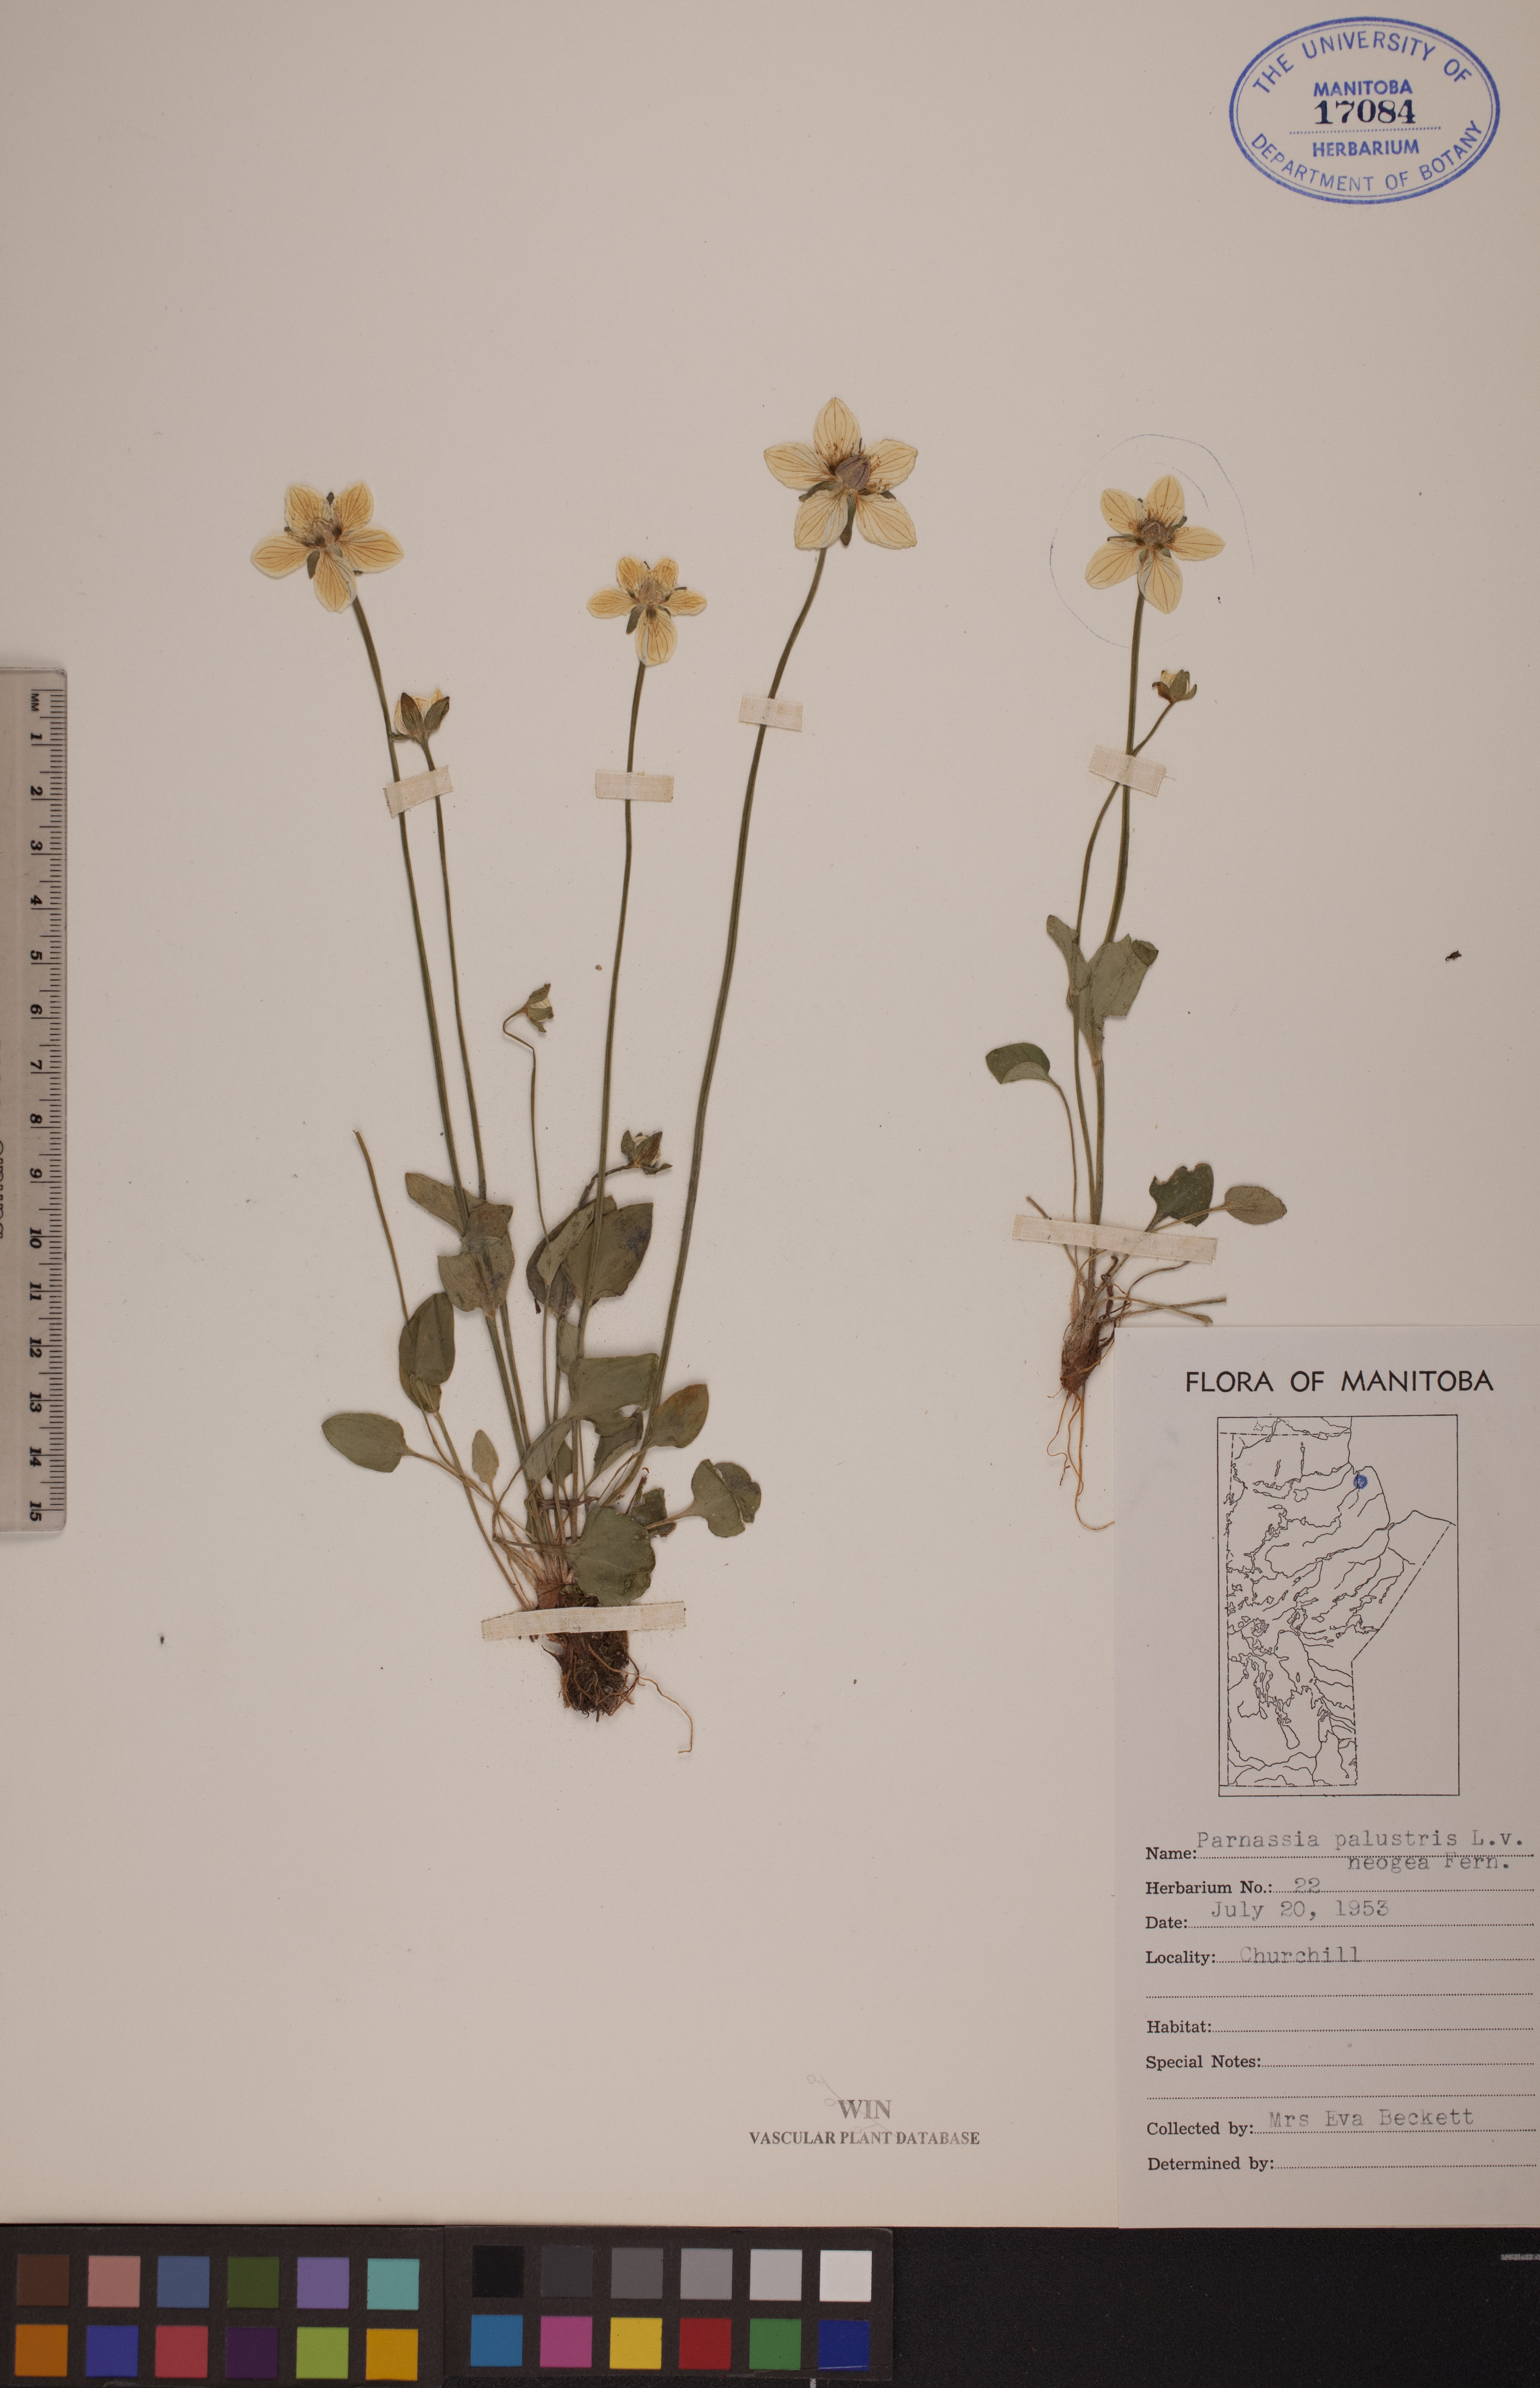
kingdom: Plantae
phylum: Tracheophyta
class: Magnoliopsida
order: Celastrales
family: Parnassiaceae
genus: Parnassia
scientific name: Parnassia palustris
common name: Grass-of-parnassus
